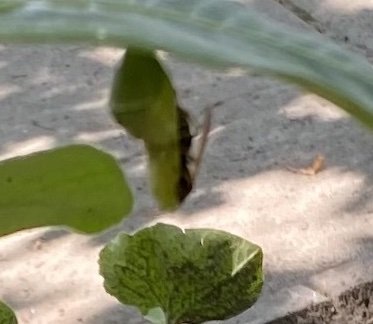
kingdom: Animalia
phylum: Arthropoda
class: Insecta
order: Lepidoptera
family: Nymphalidae
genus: Danaus
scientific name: Danaus plexippus
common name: Monarch
